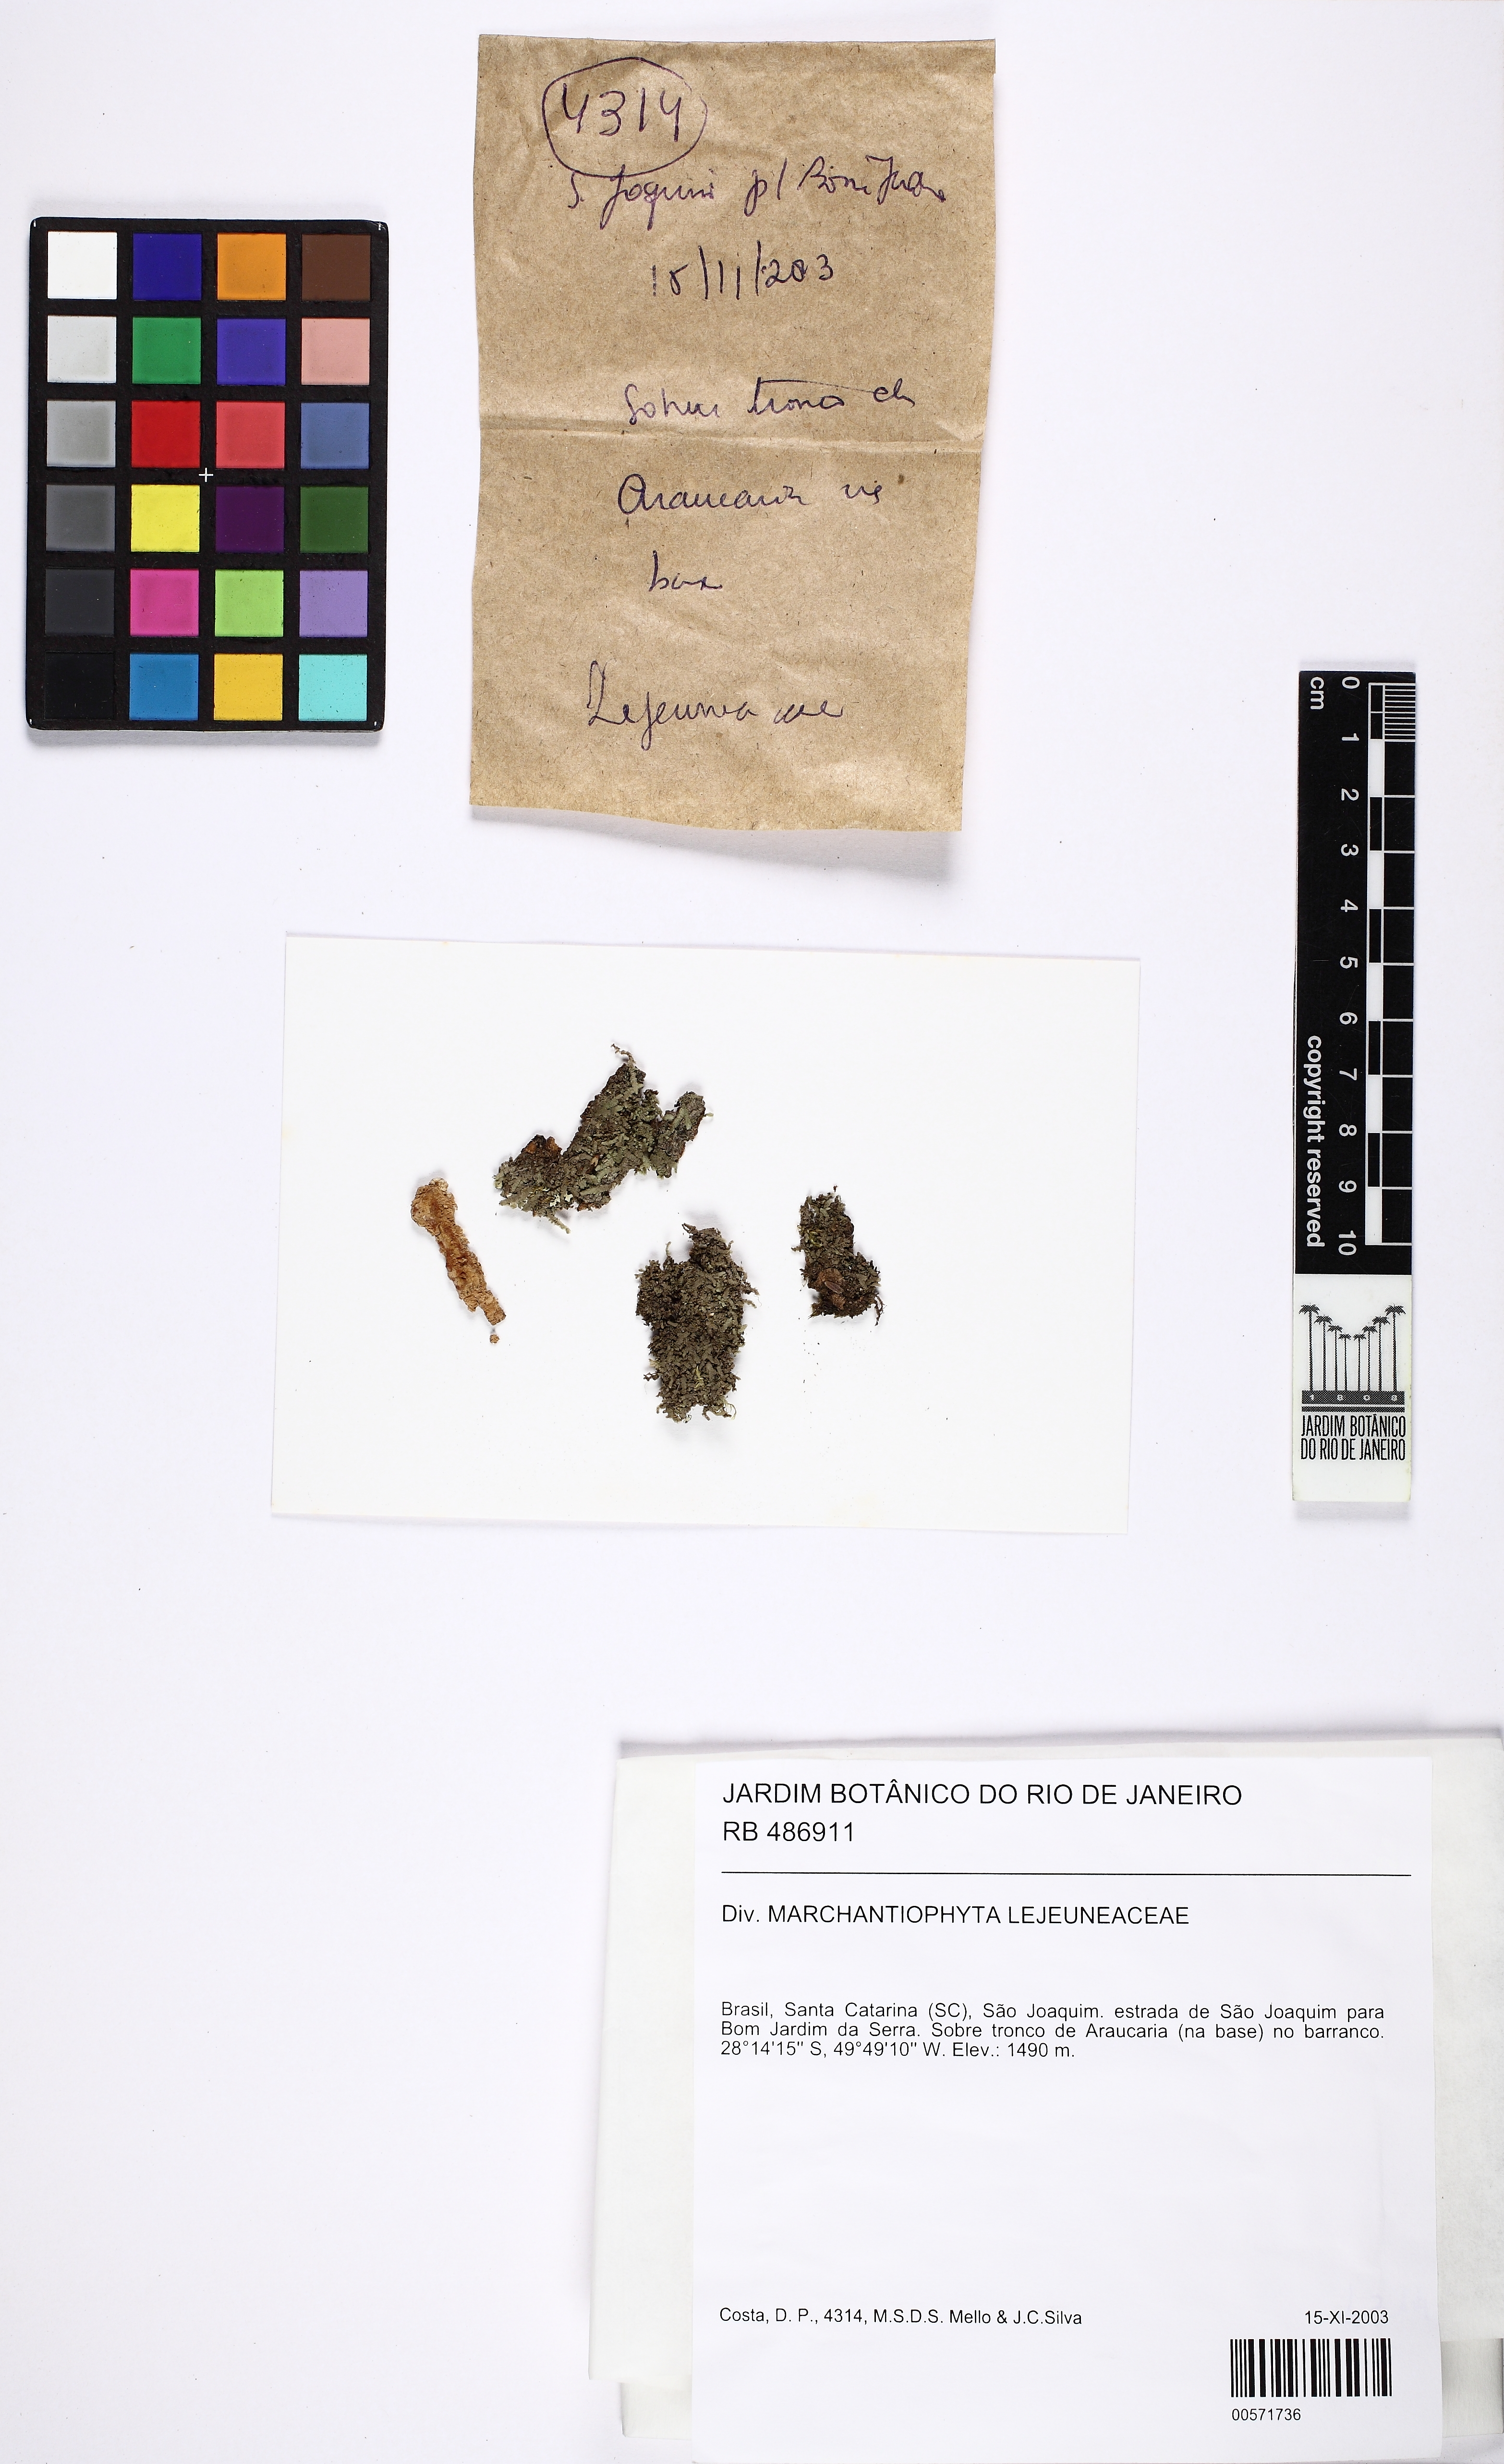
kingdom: Plantae
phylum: Marchantiophyta
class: Jungermanniopsida
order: Porellales
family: Lejeuneaceae
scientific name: Lejeuneaceae
